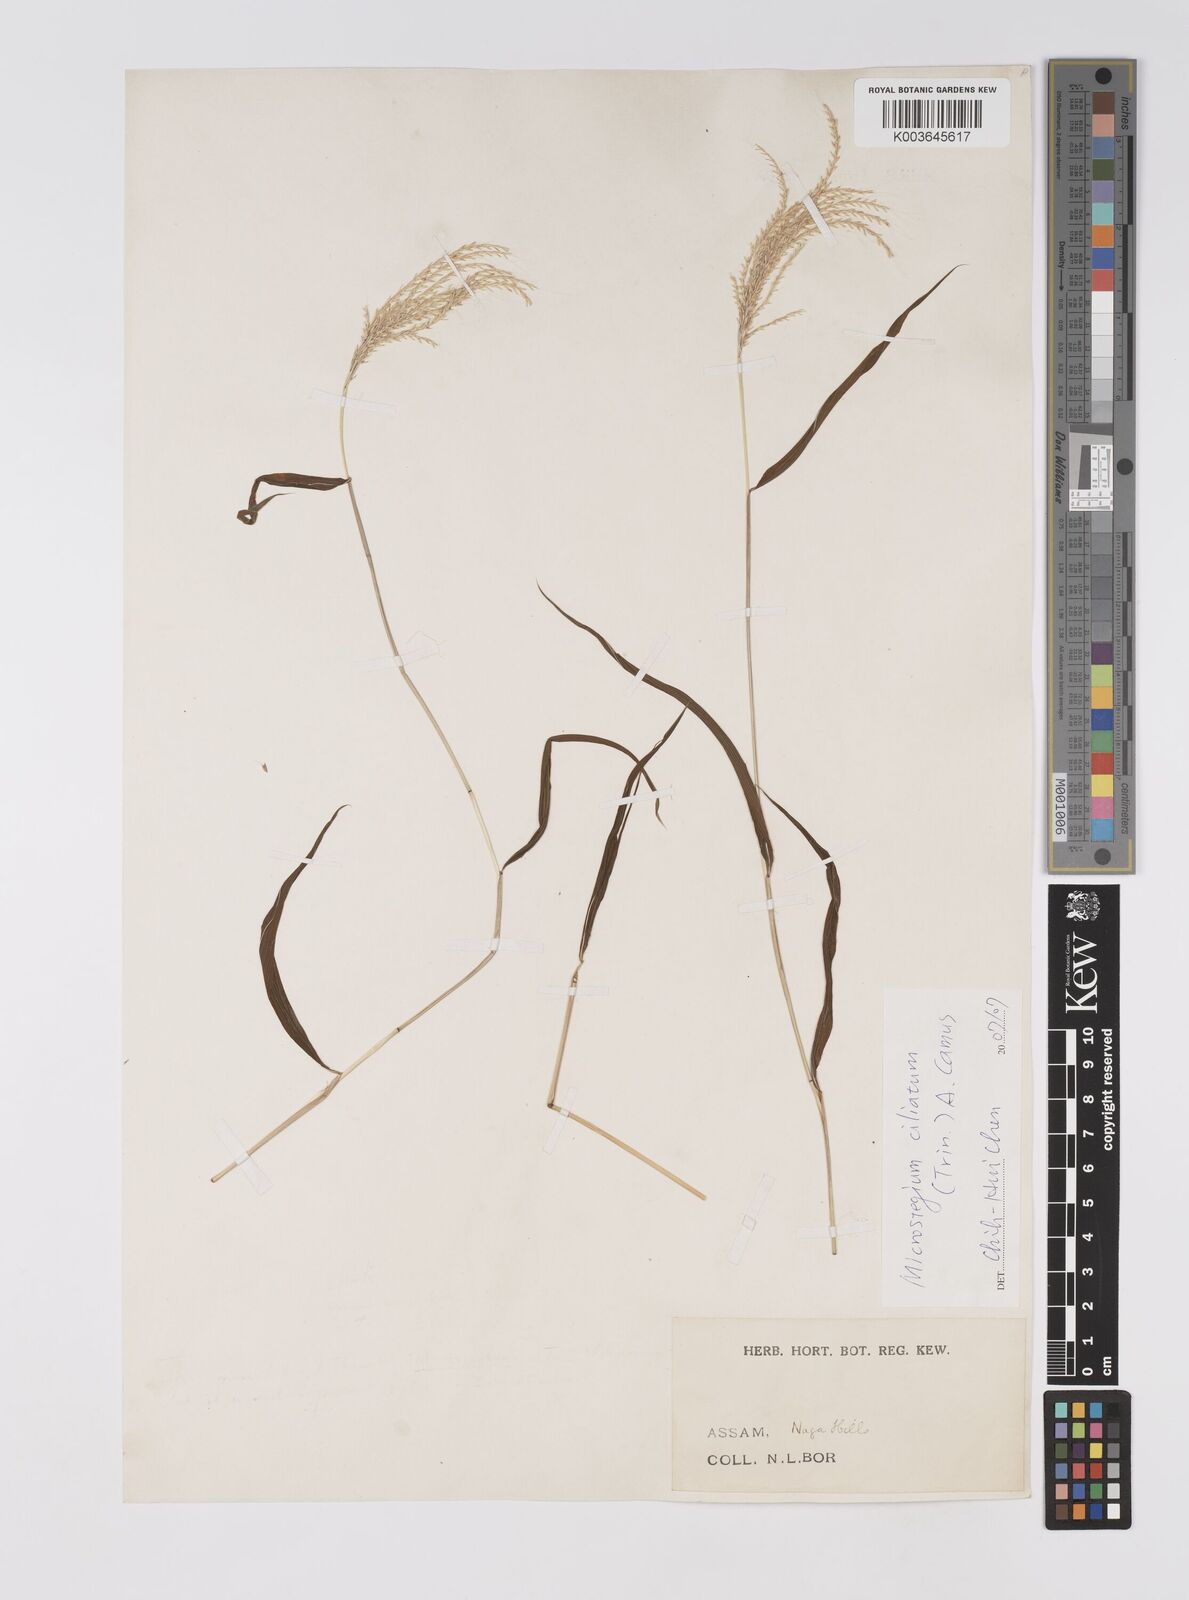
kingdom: Plantae
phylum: Tracheophyta
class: Liliopsida
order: Poales
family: Poaceae
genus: Microstegium
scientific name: Microstegium fasciculatum
